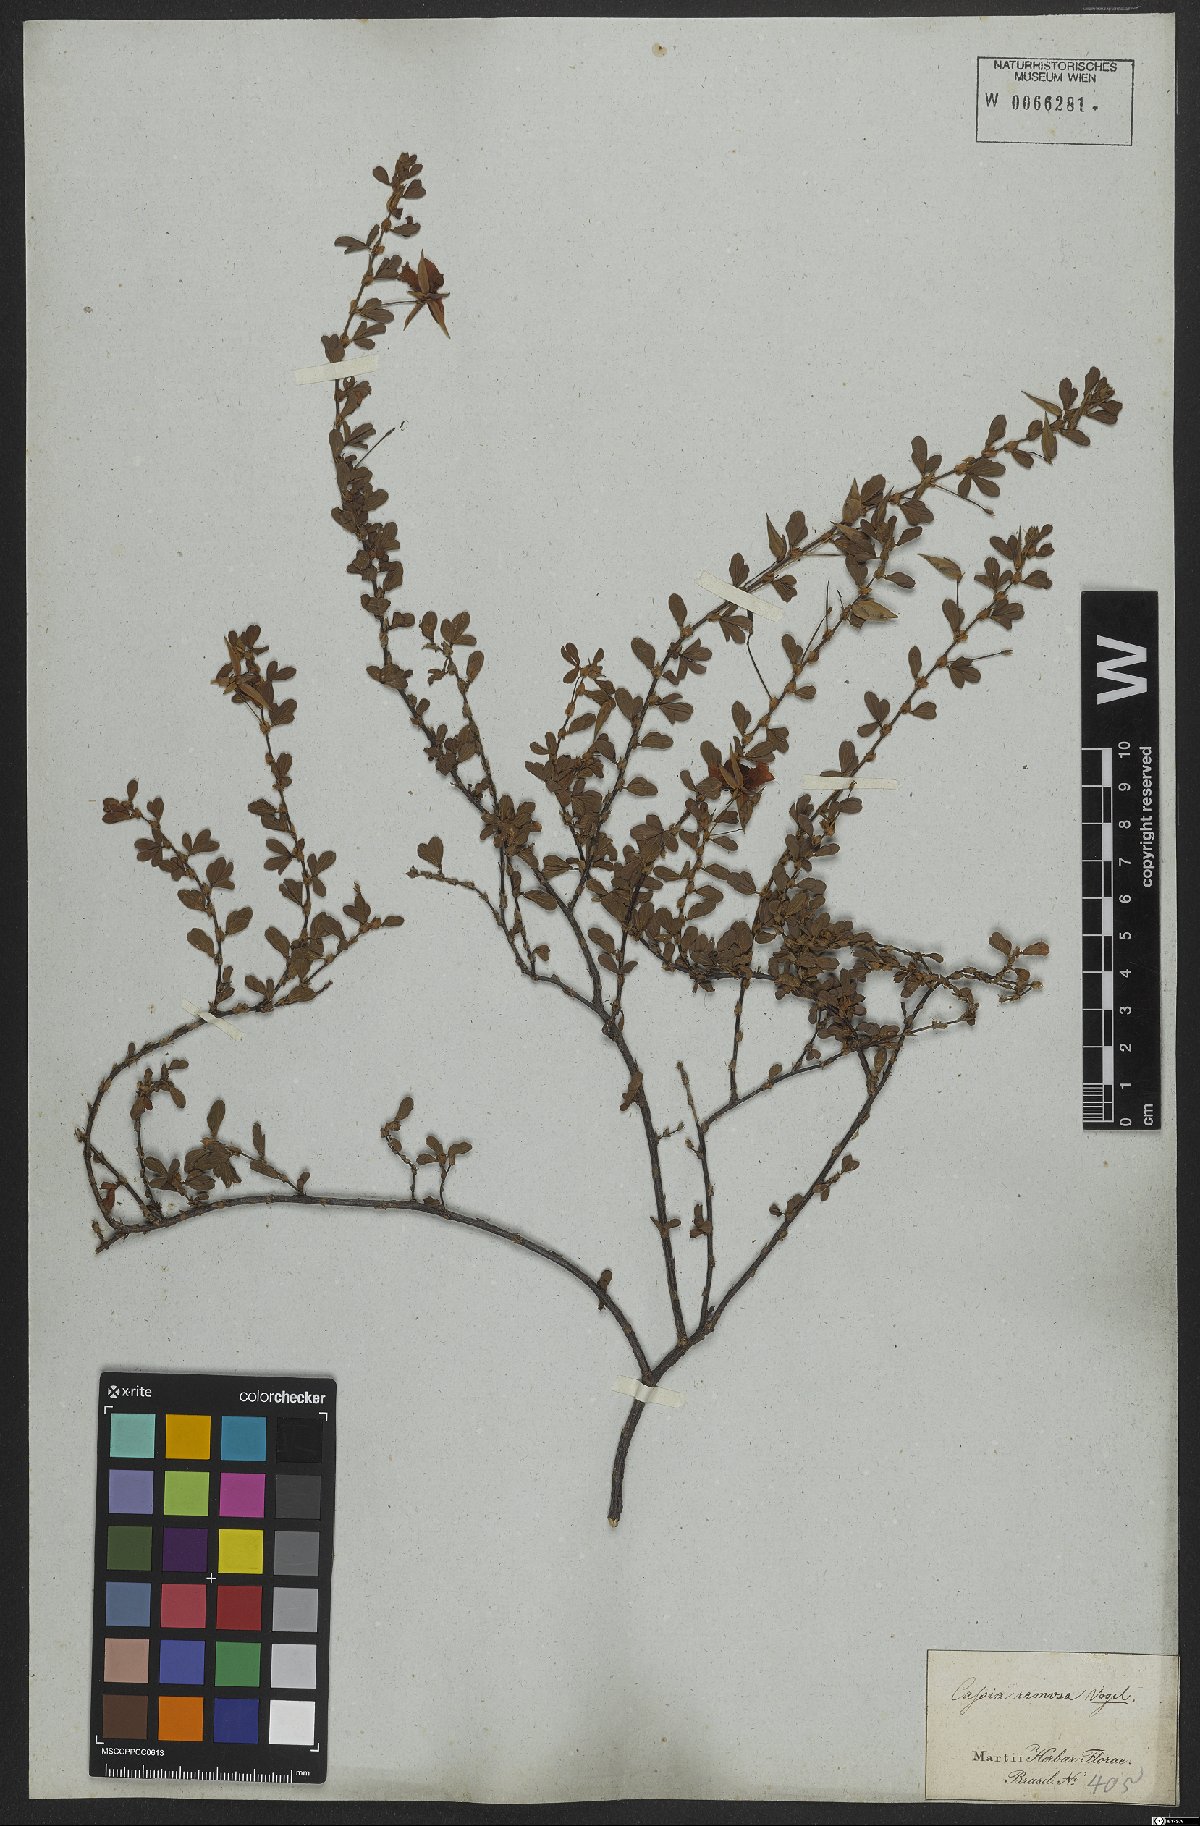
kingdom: Plantae
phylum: Tracheophyta
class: Magnoliopsida
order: Fabales
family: Fabaceae
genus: Senna
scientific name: Senna uniflora
